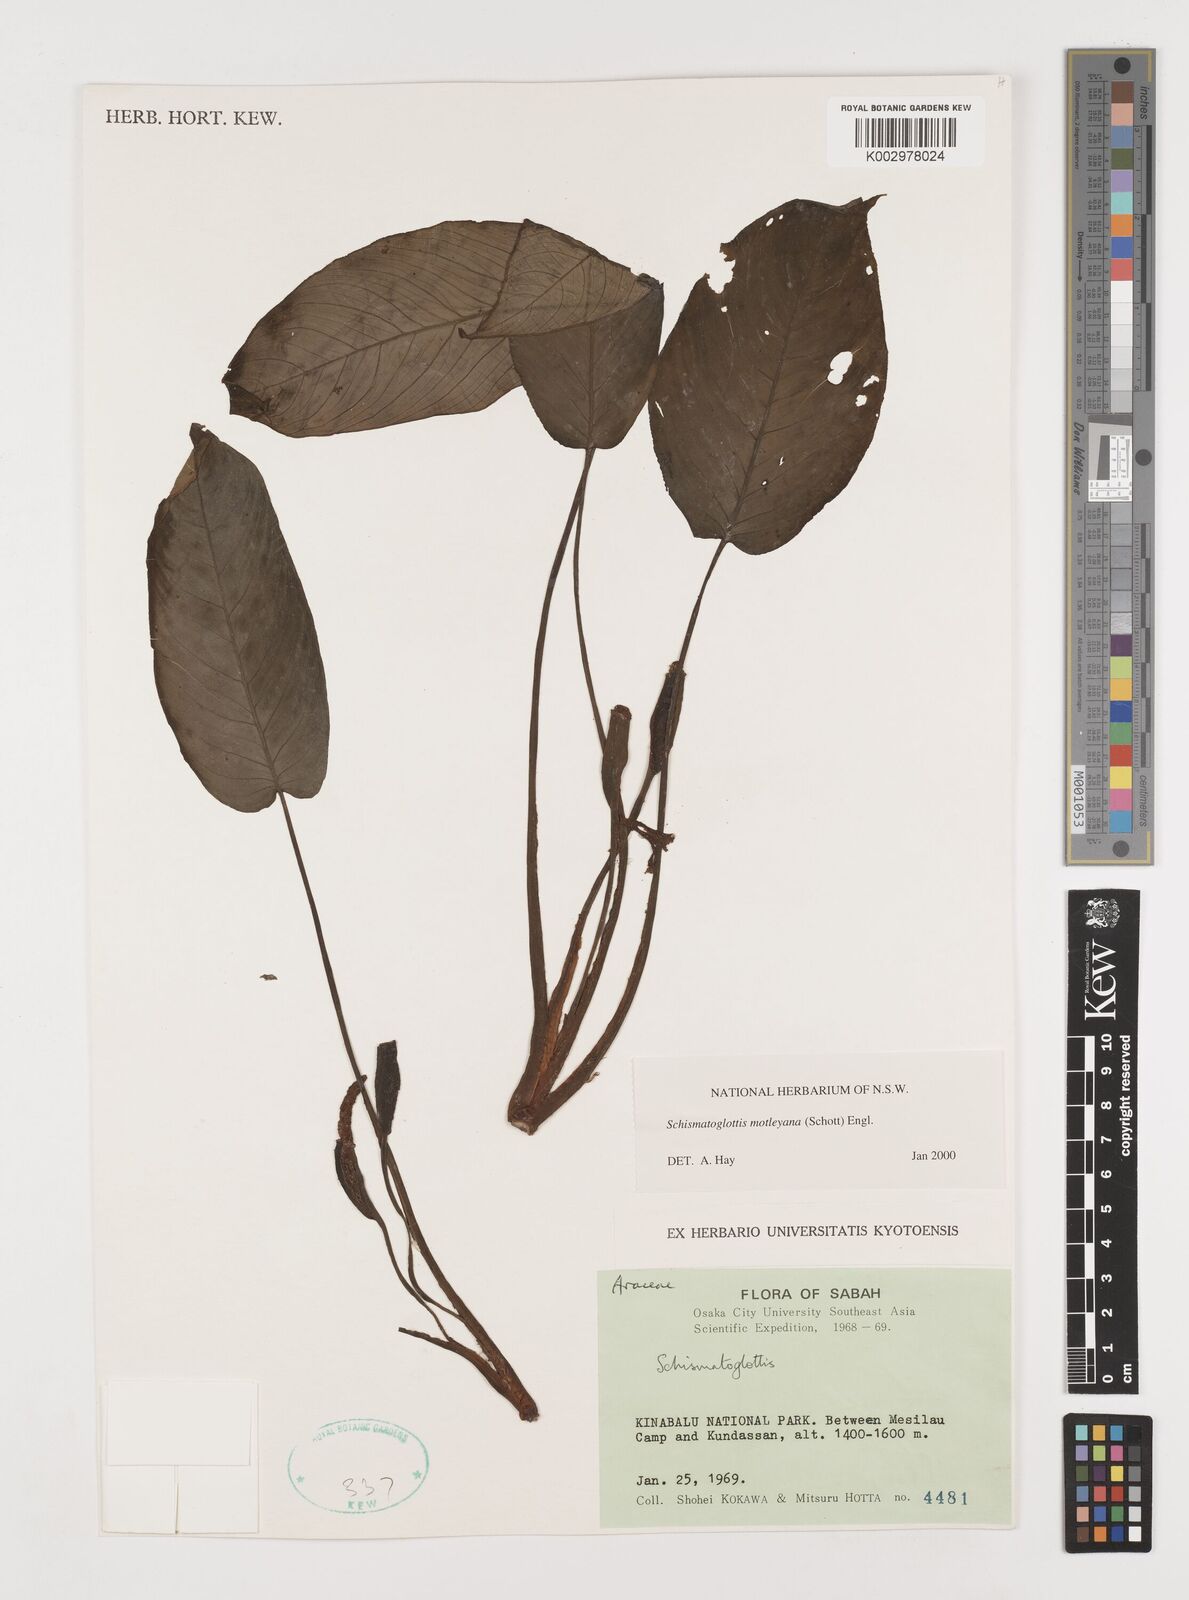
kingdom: Plantae
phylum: Tracheophyta
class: Liliopsida
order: Alismatales
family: Araceae
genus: Schismatoglottis
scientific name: Schismatoglottis motleyana
